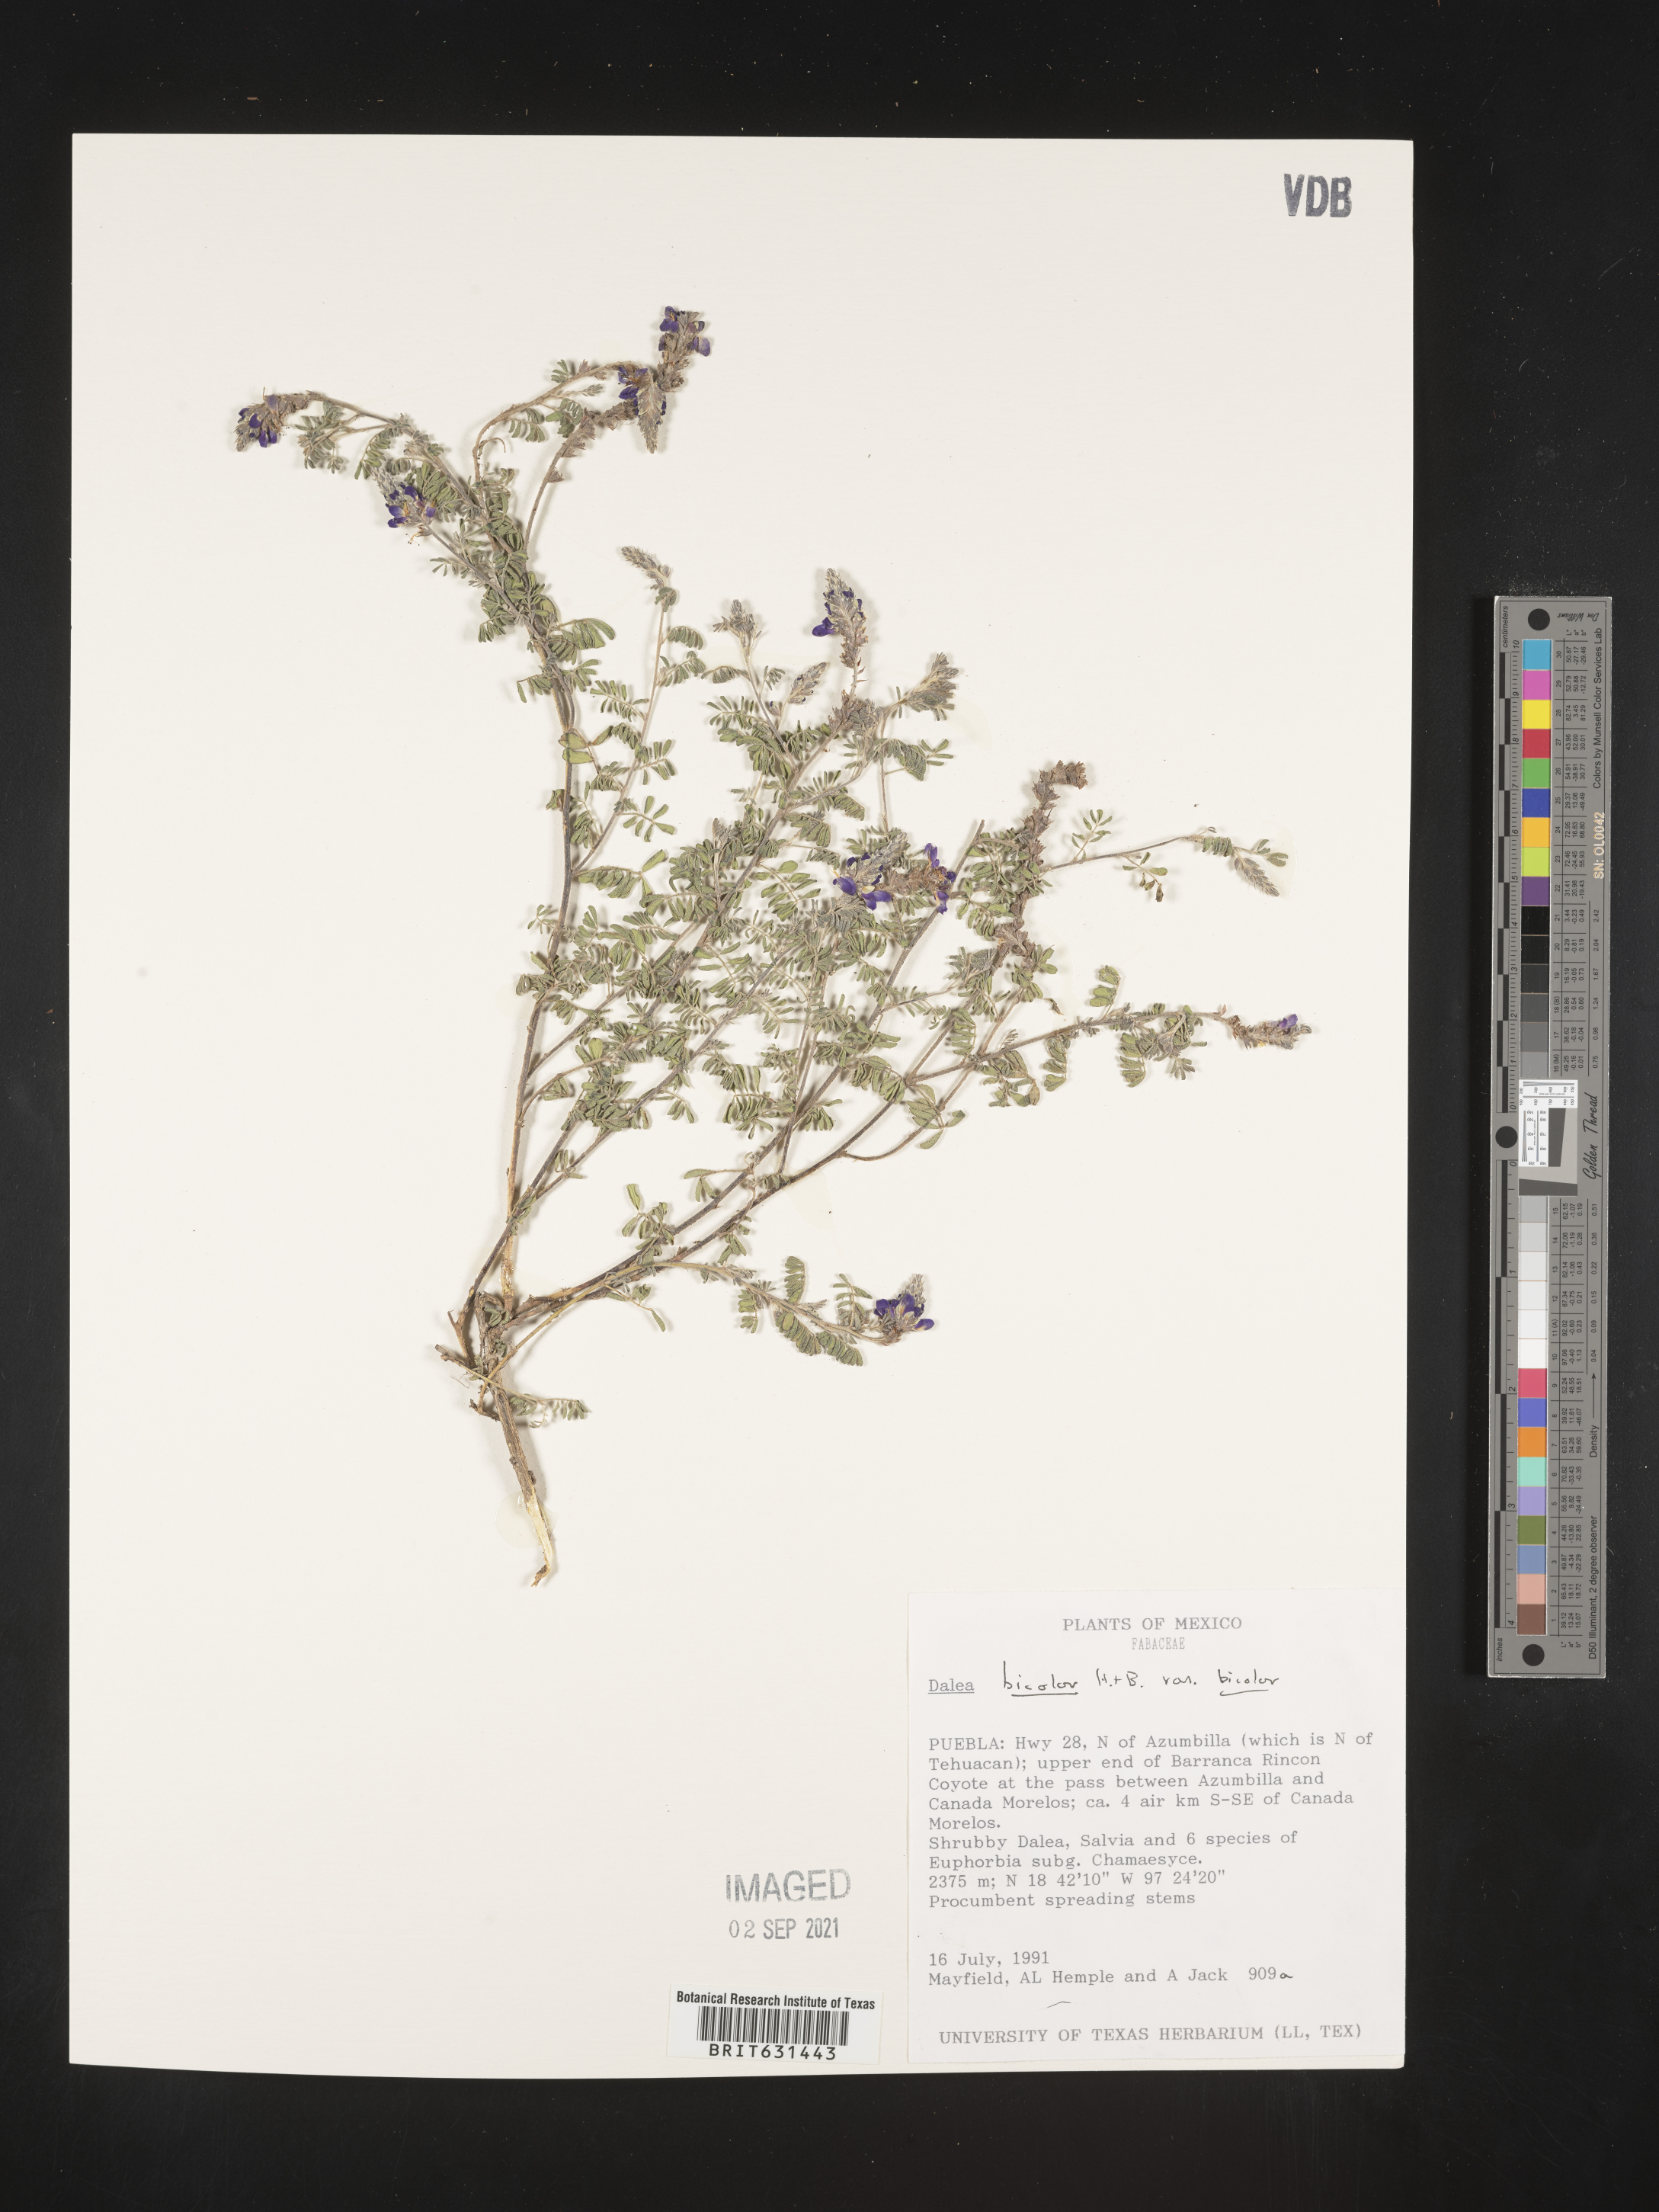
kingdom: Plantae
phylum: Tracheophyta
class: Magnoliopsida
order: Fabales
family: Fabaceae
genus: Dalea
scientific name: Dalea bicolor
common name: Silver prairie-clover
